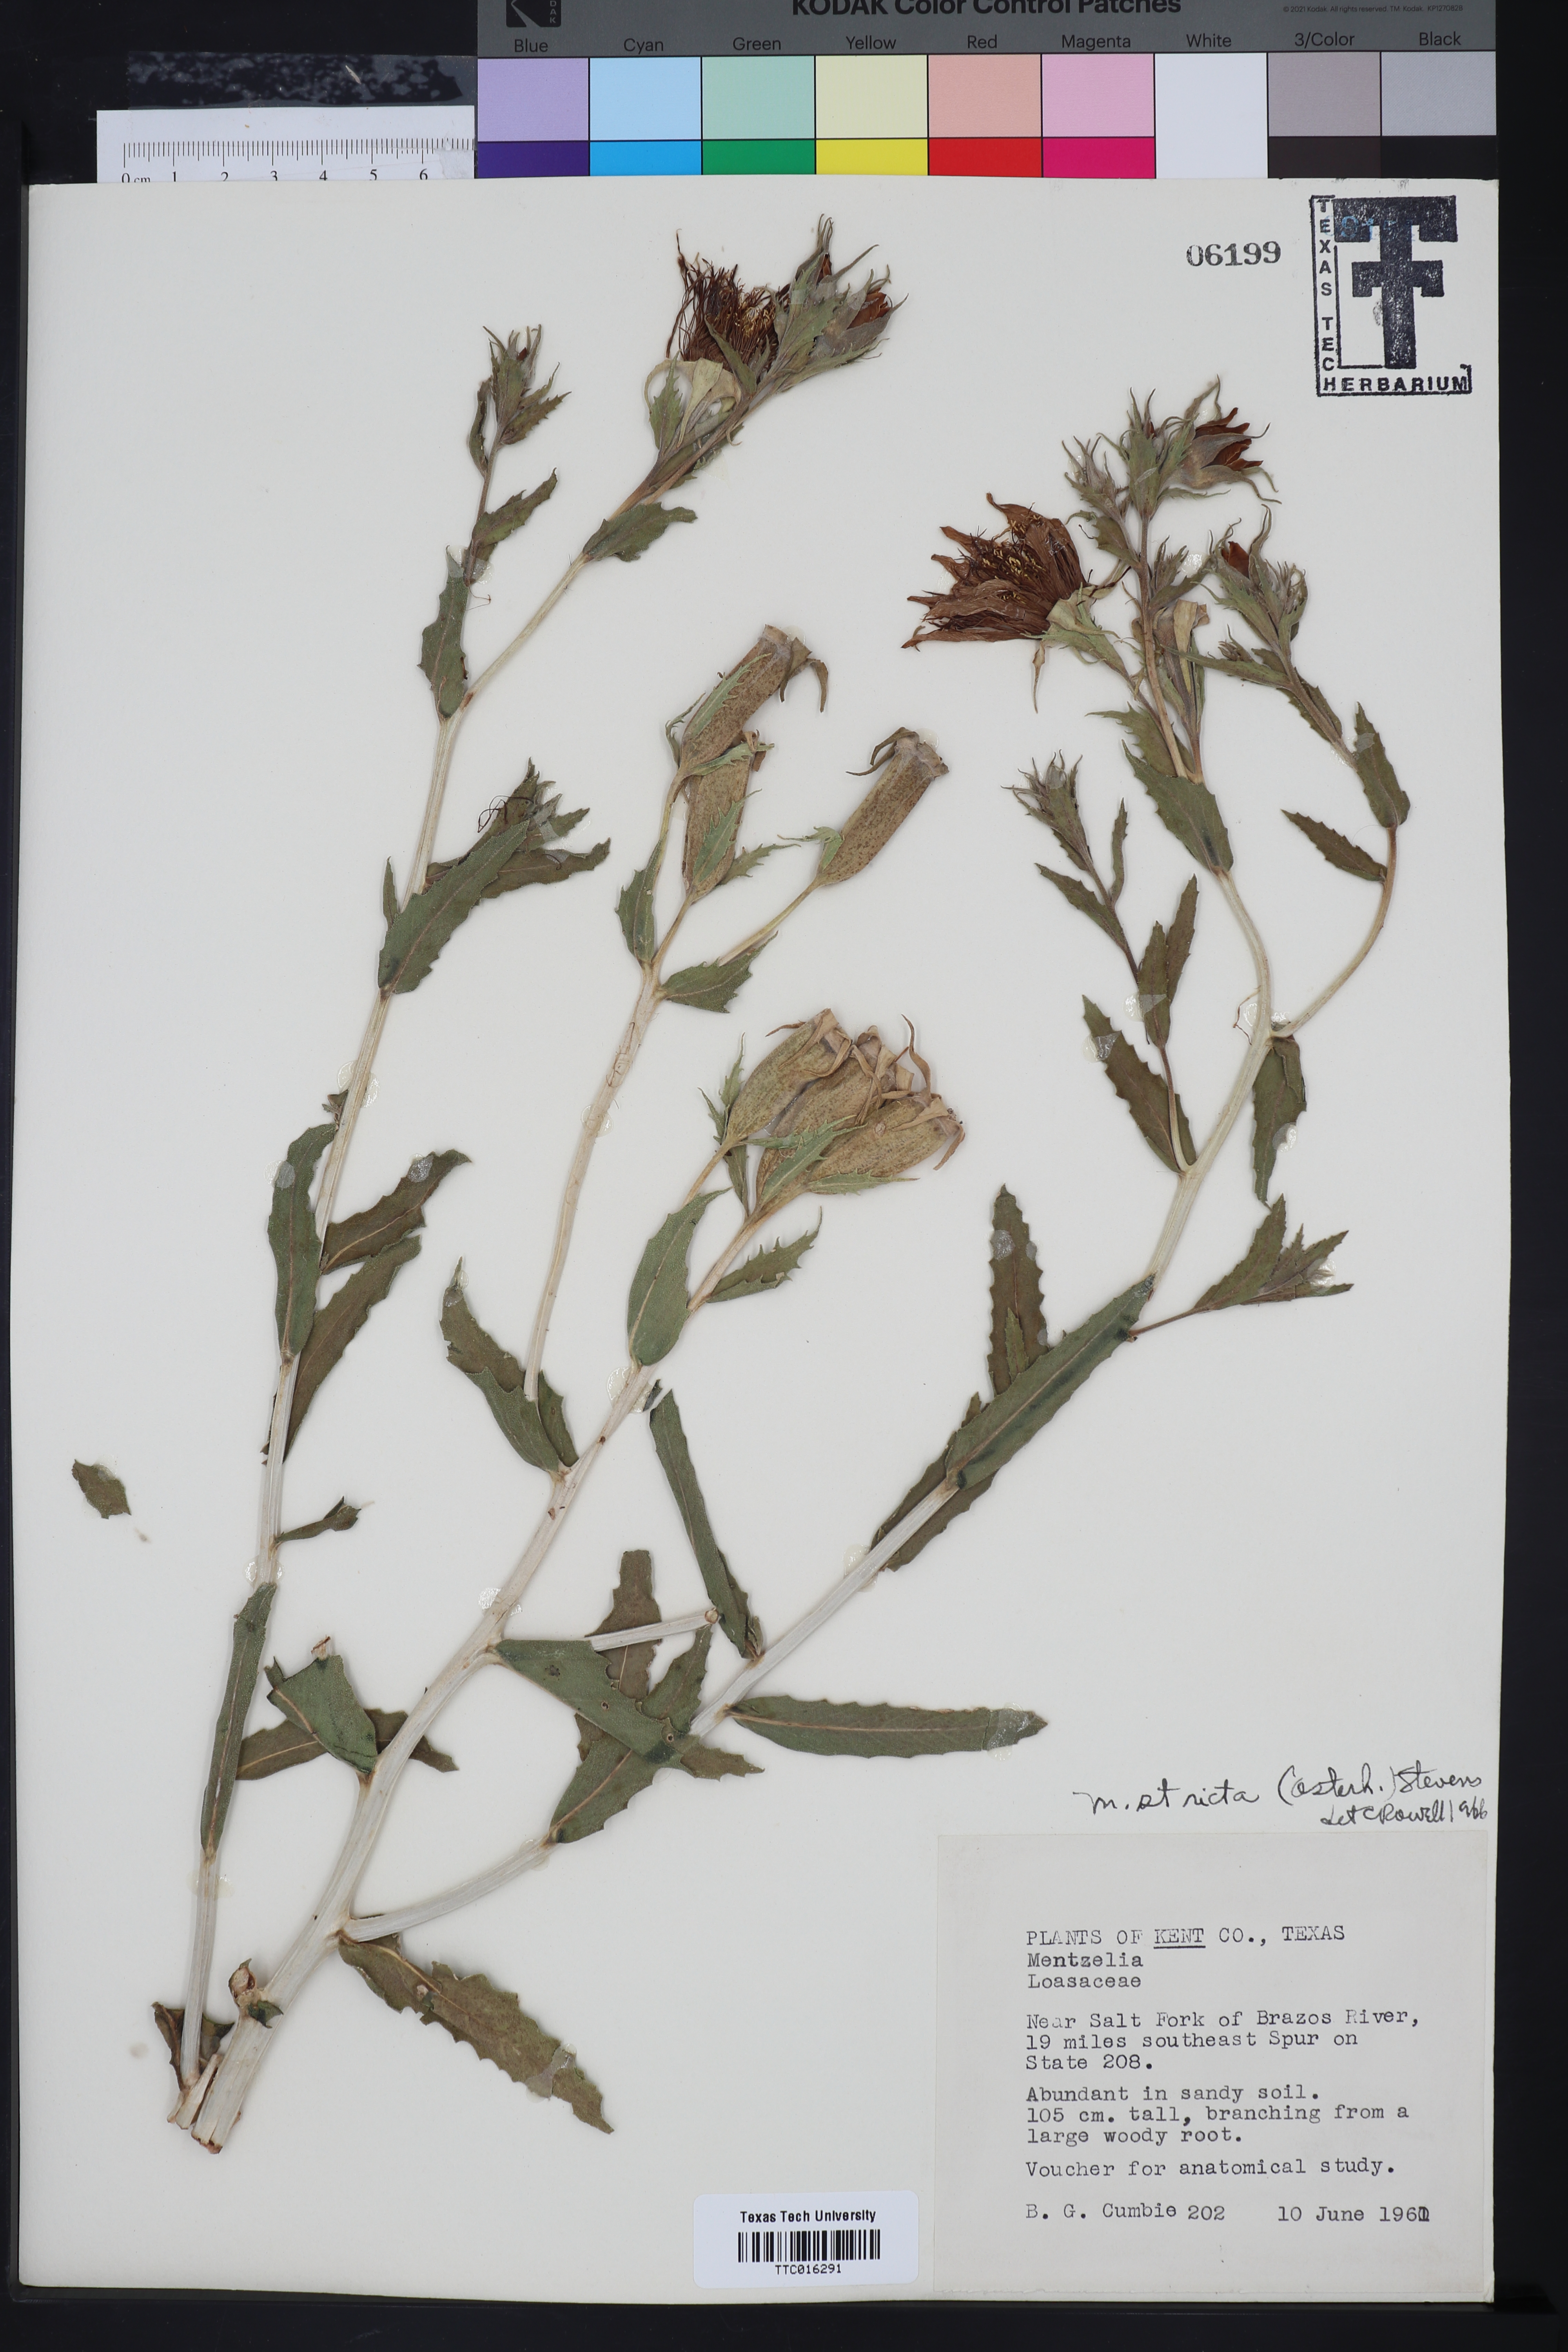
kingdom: Plantae
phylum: Tracheophyta
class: Magnoliopsida
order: Cornales
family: Loasaceae
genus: Mentzelia
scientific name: Mentzelia nuda
